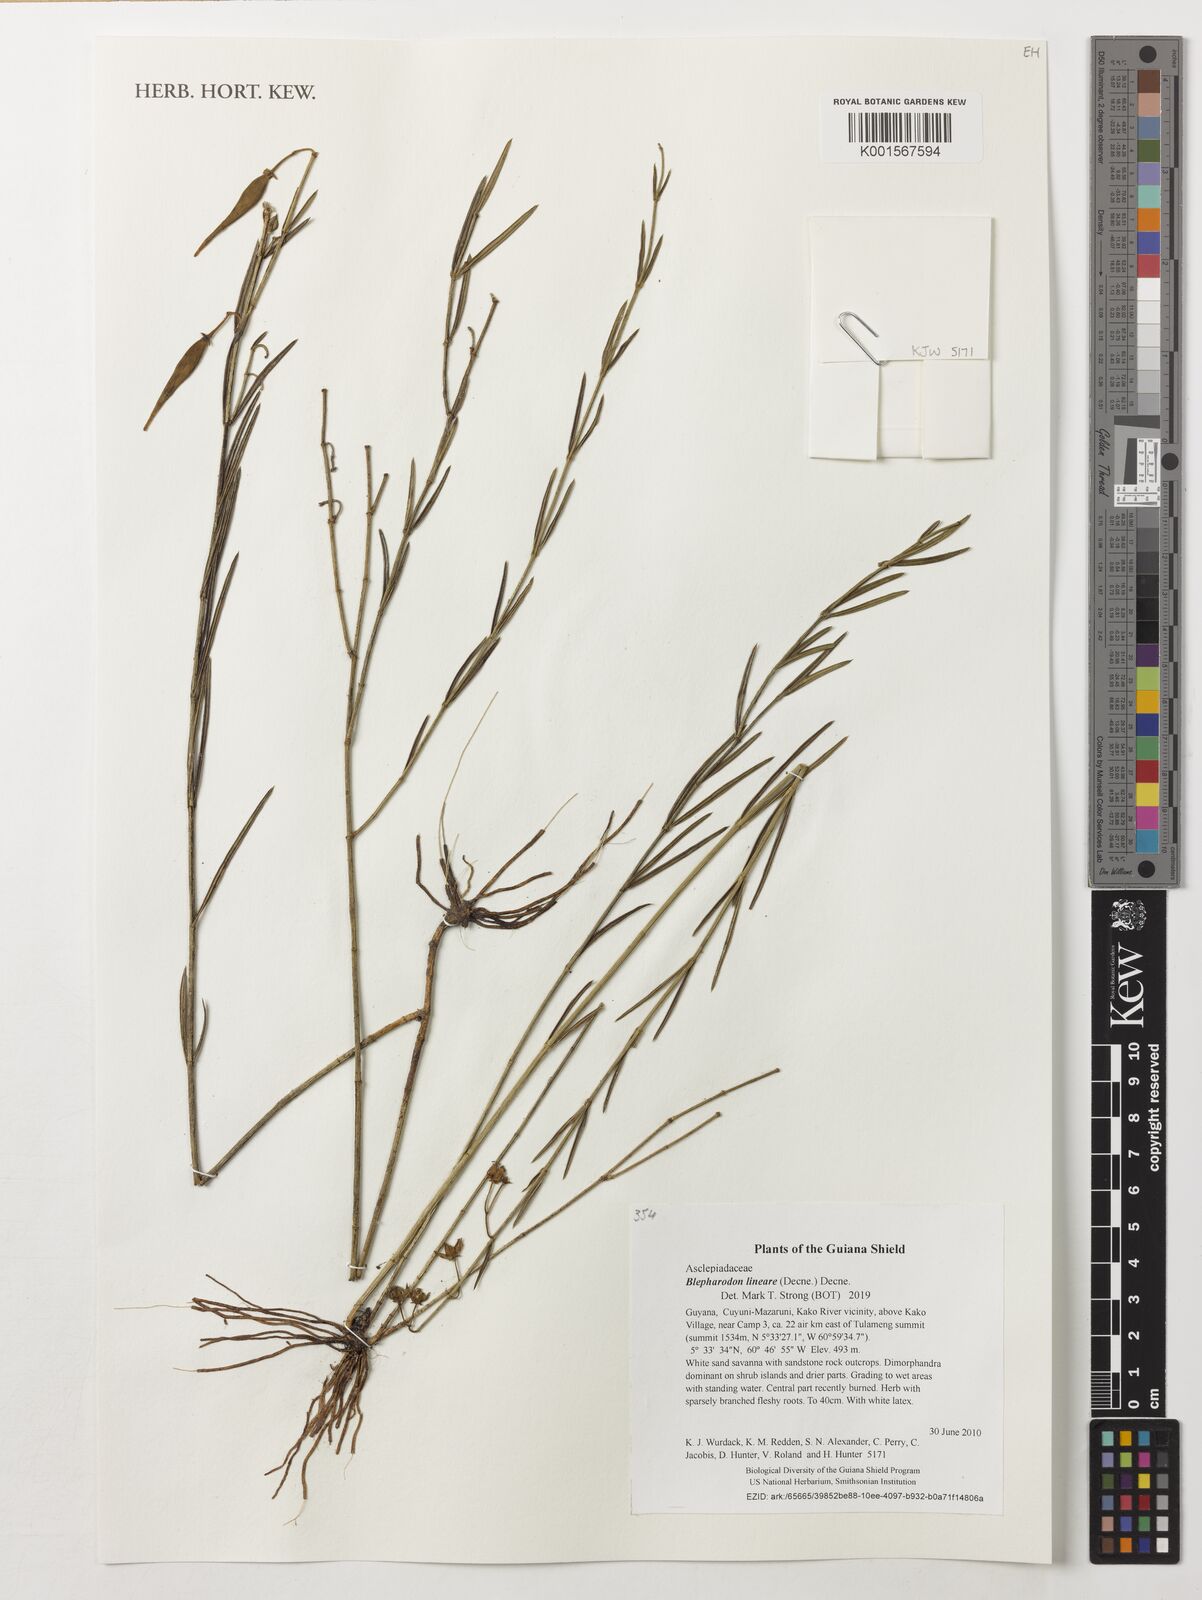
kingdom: Plantae
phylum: Tracheophyta
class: Magnoliopsida
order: Gentianales
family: Apocynaceae
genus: Blepharodon
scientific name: Blepharodon lineare
